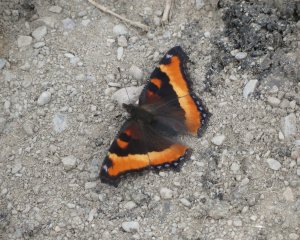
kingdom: Animalia
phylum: Arthropoda
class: Insecta
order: Lepidoptera
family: Nymphalidae
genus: Aglais
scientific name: Aglais milberti
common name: Milbert's Tortoiseshell
